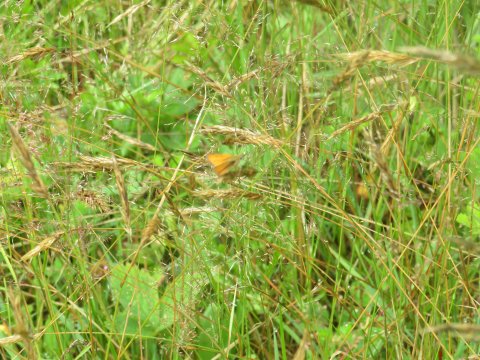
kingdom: Animalia
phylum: Arthropoda
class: Insecta
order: Lepidoptera
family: Hesperiidae
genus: Thymelicus
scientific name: Thymelicus lineola
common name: European Skipper
